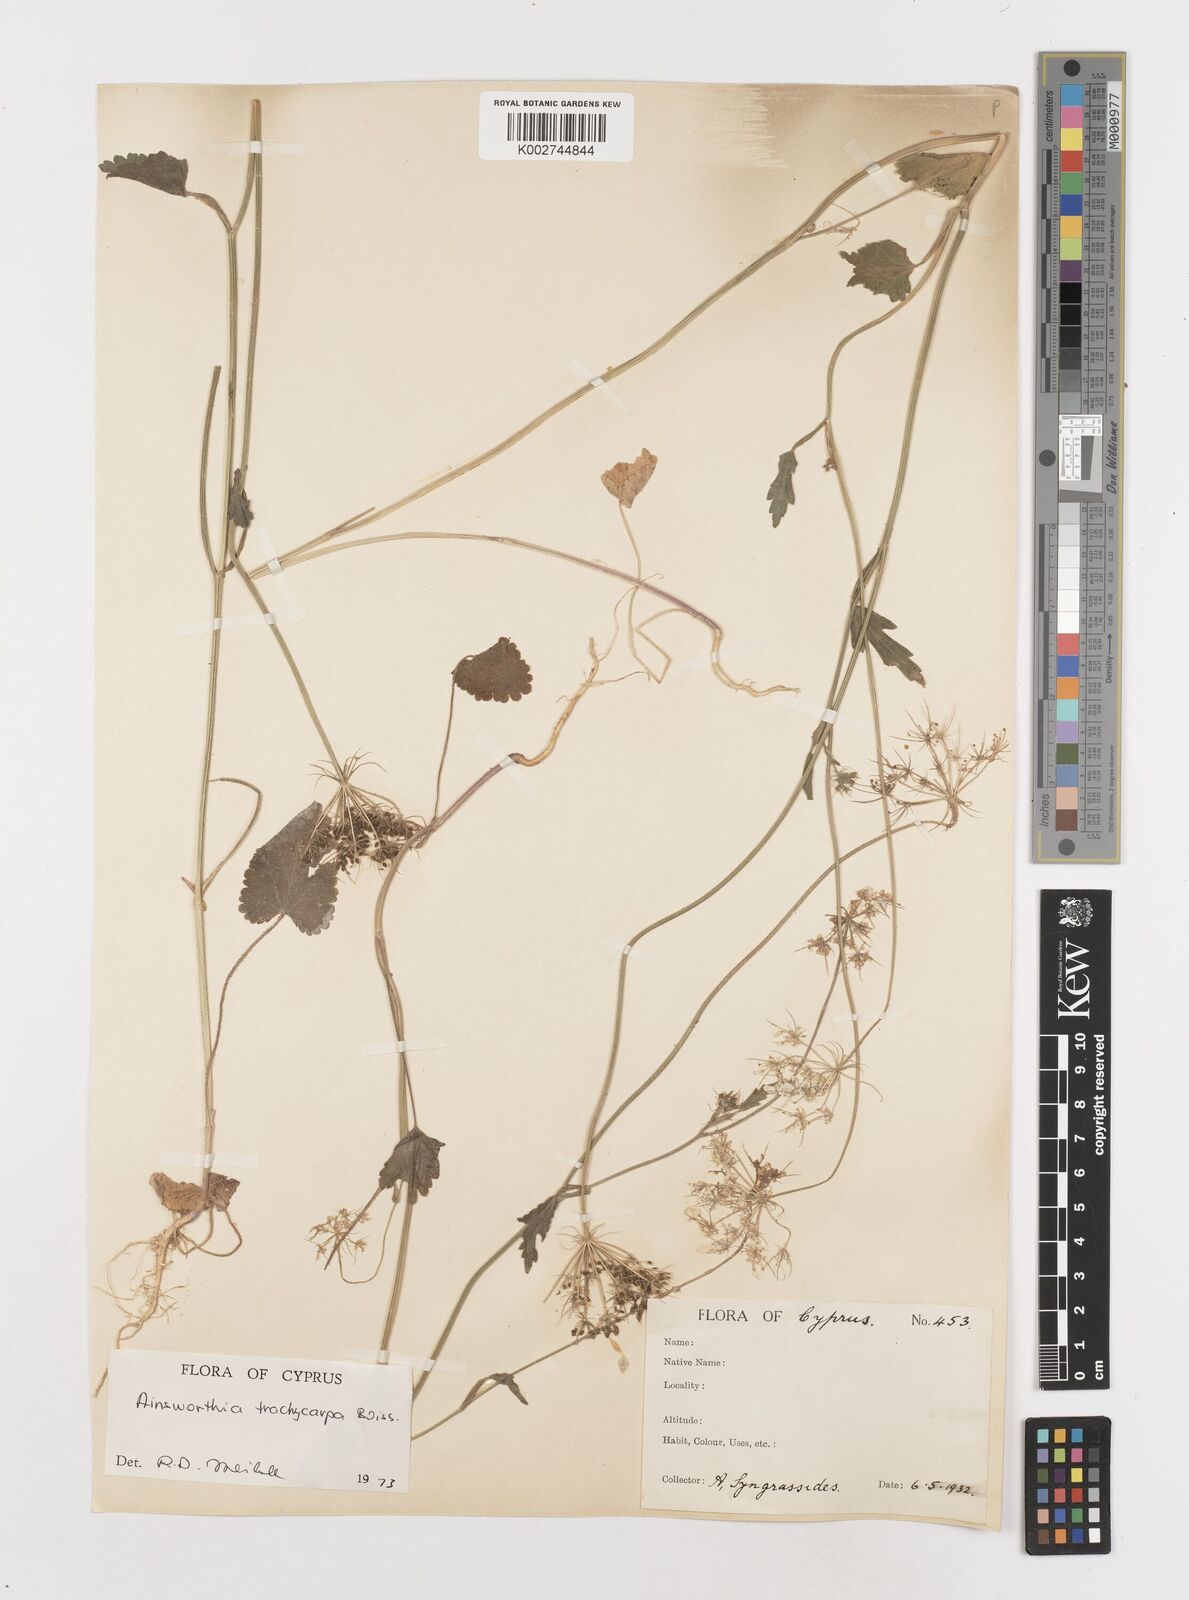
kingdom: Plantae
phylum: Tracheophyta
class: Magnoliopsida
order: Apiales
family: Apiaceae
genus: Ainsworthia
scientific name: Ainsworthia trachycarpa
